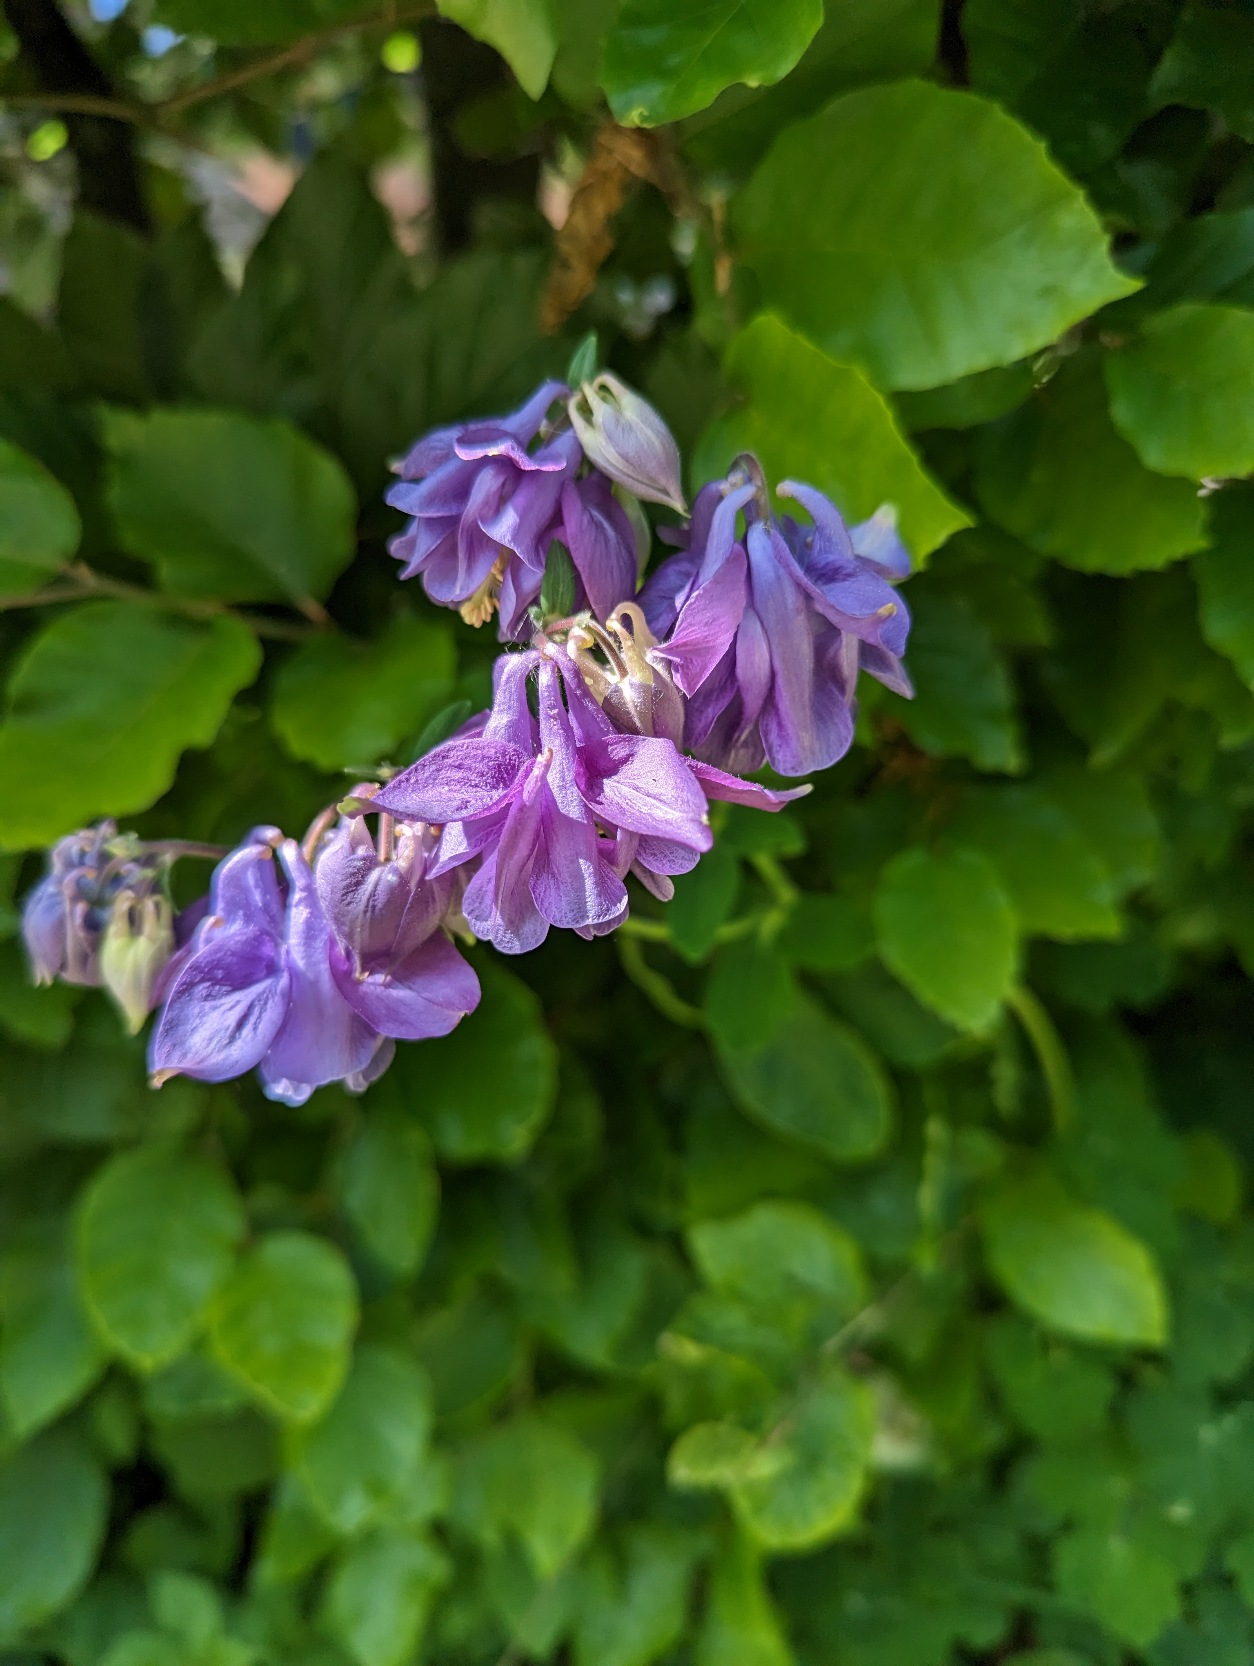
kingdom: Plantae
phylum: Tracheophyta
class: Magnoliopsida
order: Ranunculales
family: Ranunculaceae
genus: Aquilegia
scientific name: Aquilegia vulgaris
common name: Akeleje
